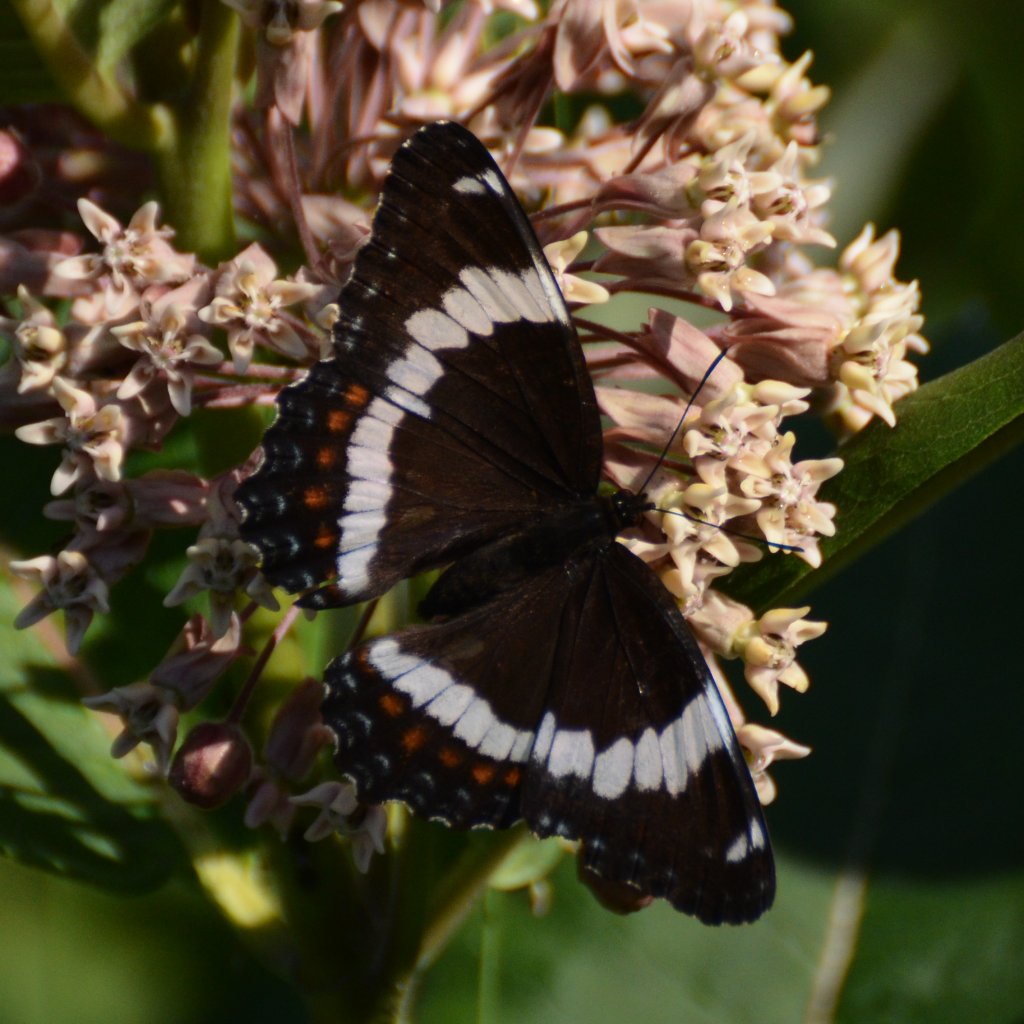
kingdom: Animalia
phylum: Arthropoda
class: Insecta
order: Lepidoptera
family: Nymphalidae
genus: Limenitis
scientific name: Limenitis arthemis
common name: Red-spotted Admiral
